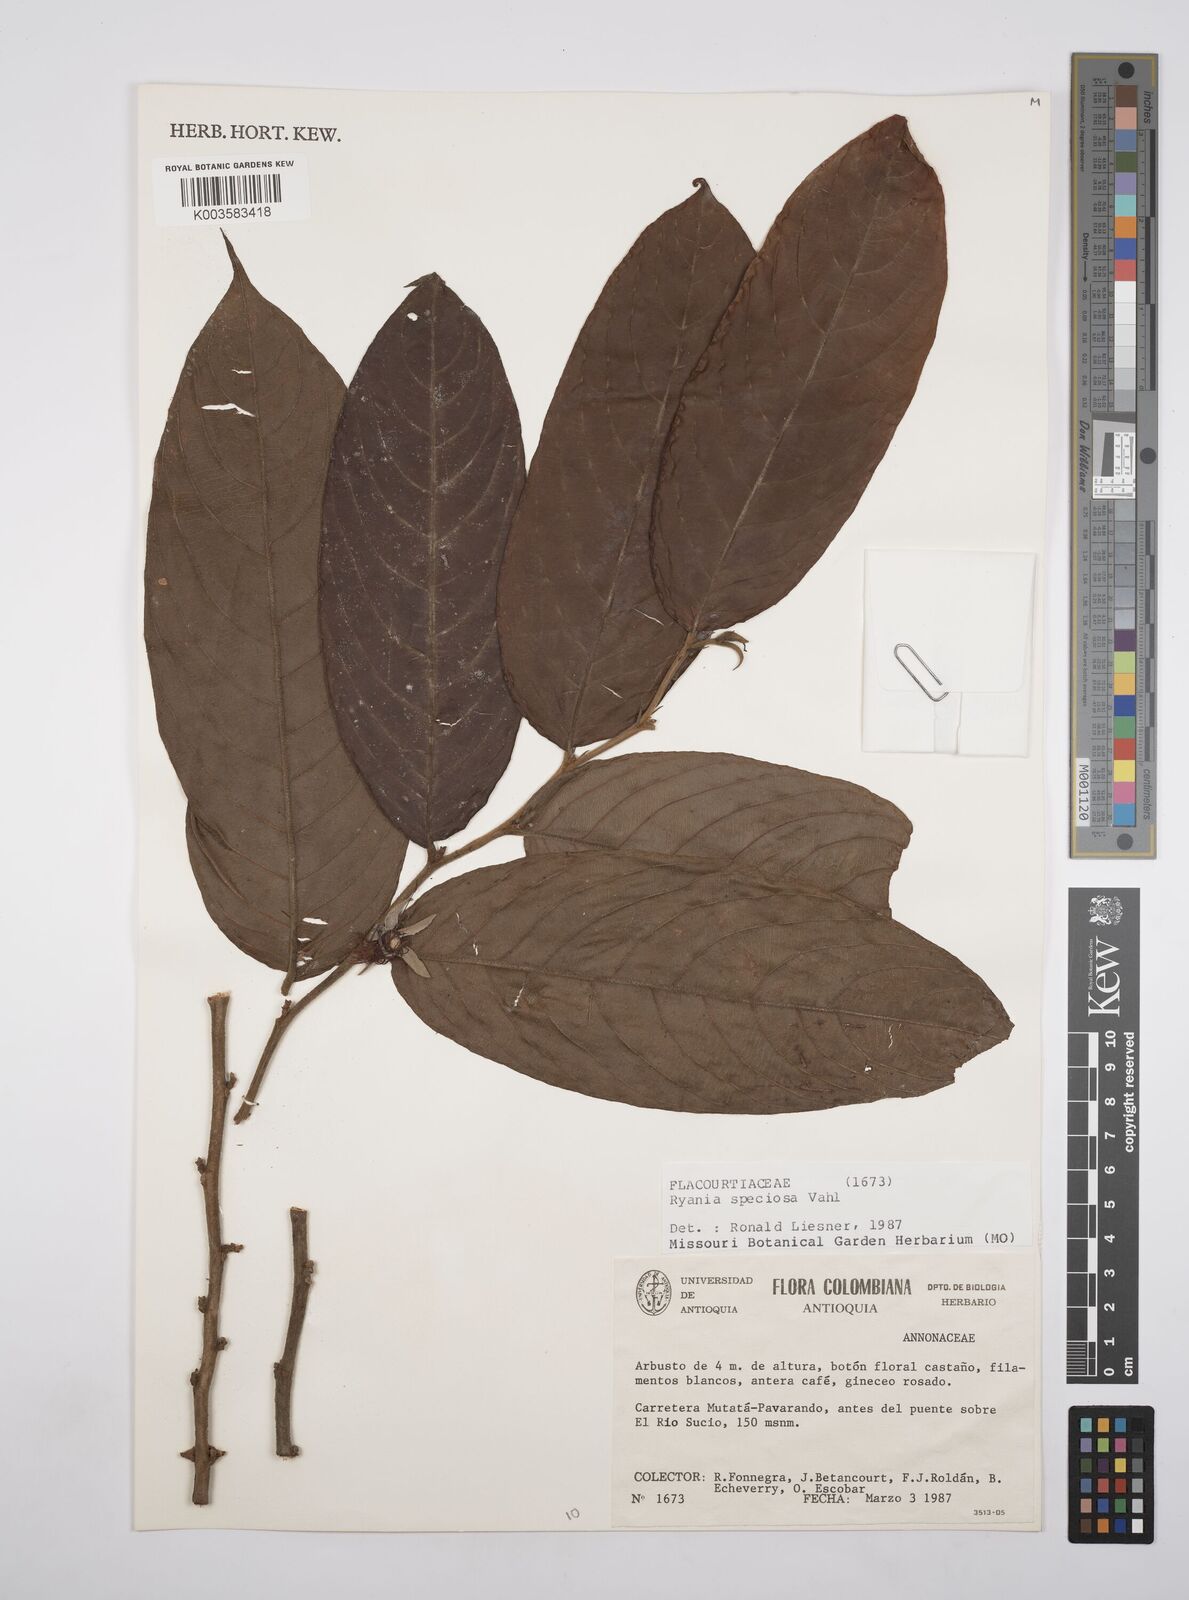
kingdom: Plantae
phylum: Tracheophyta
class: Magnoliopsida
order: Malpighiales
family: Salicaceae
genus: Ryania
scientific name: Ryania speciosa
